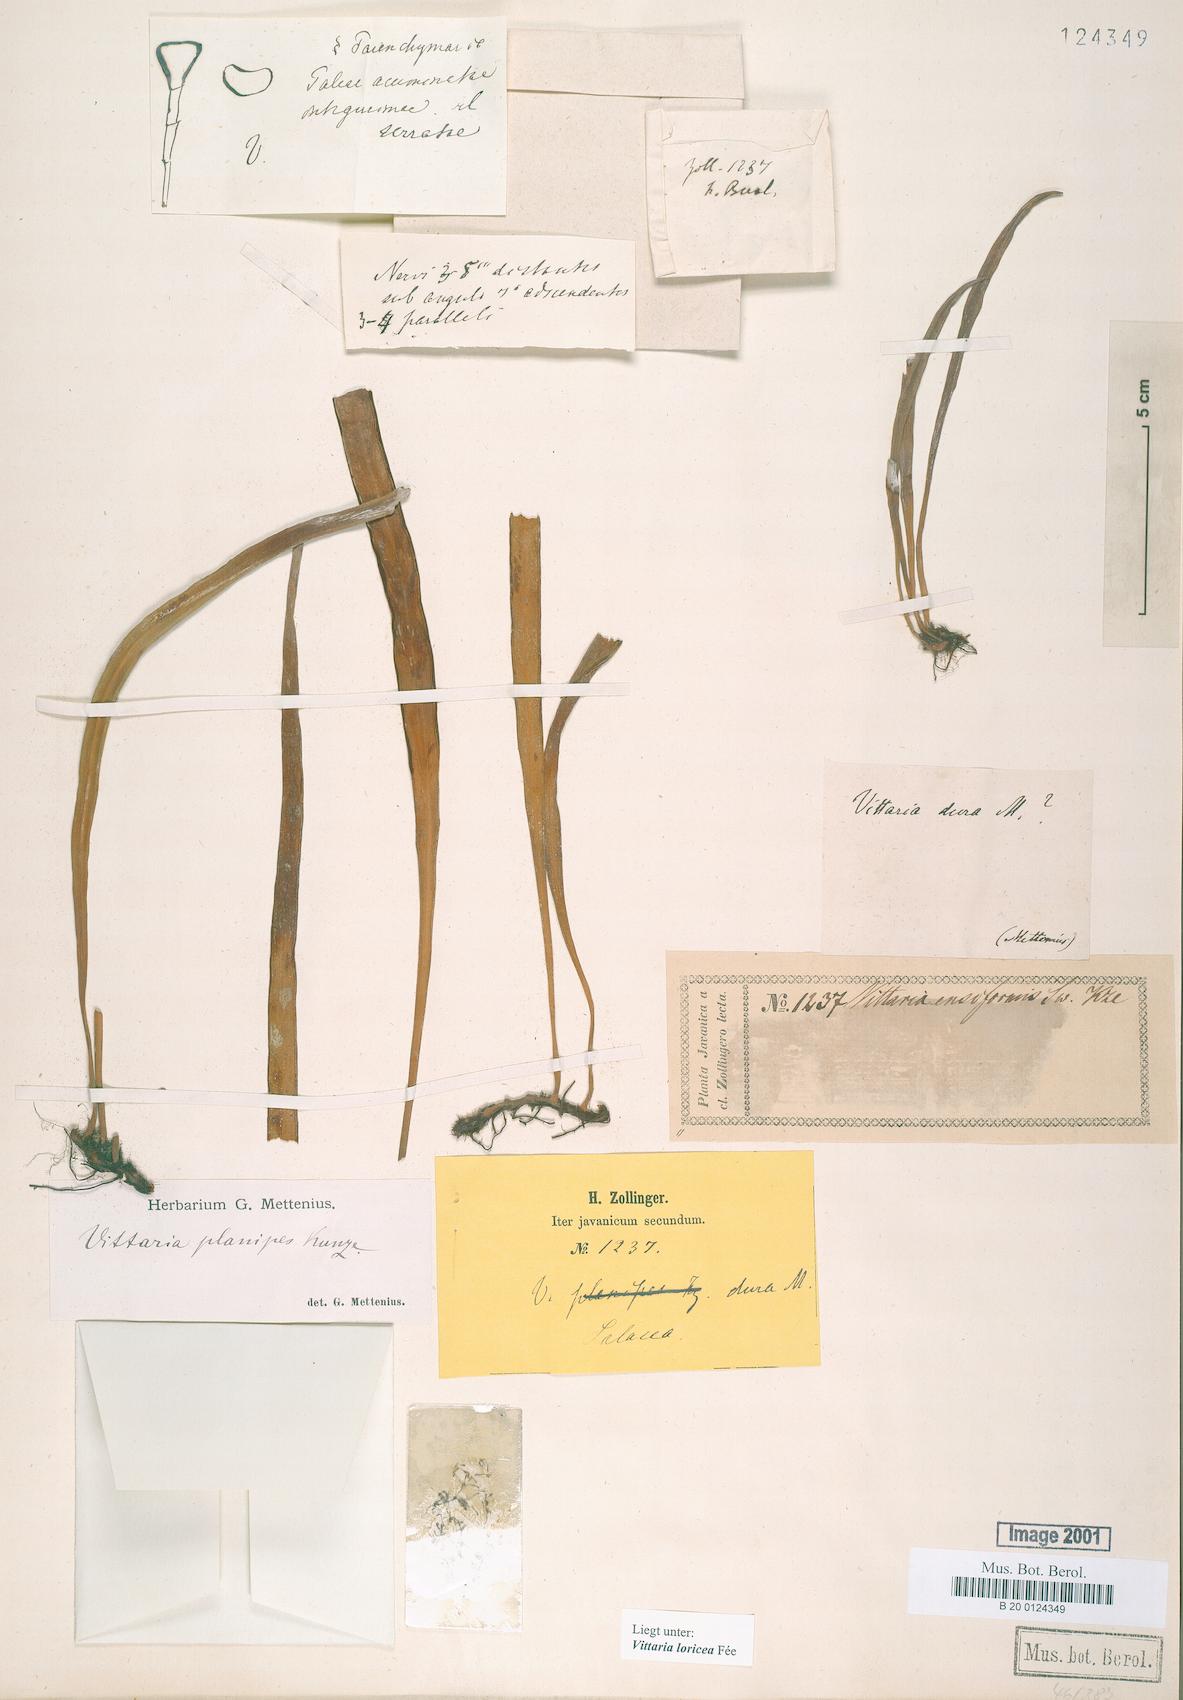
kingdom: Plantae
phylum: Tracheophyta
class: Polypodiopsida
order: Polypodiales
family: Pteridaceae
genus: Haplopteris
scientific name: Haplopteris zosterifolia
